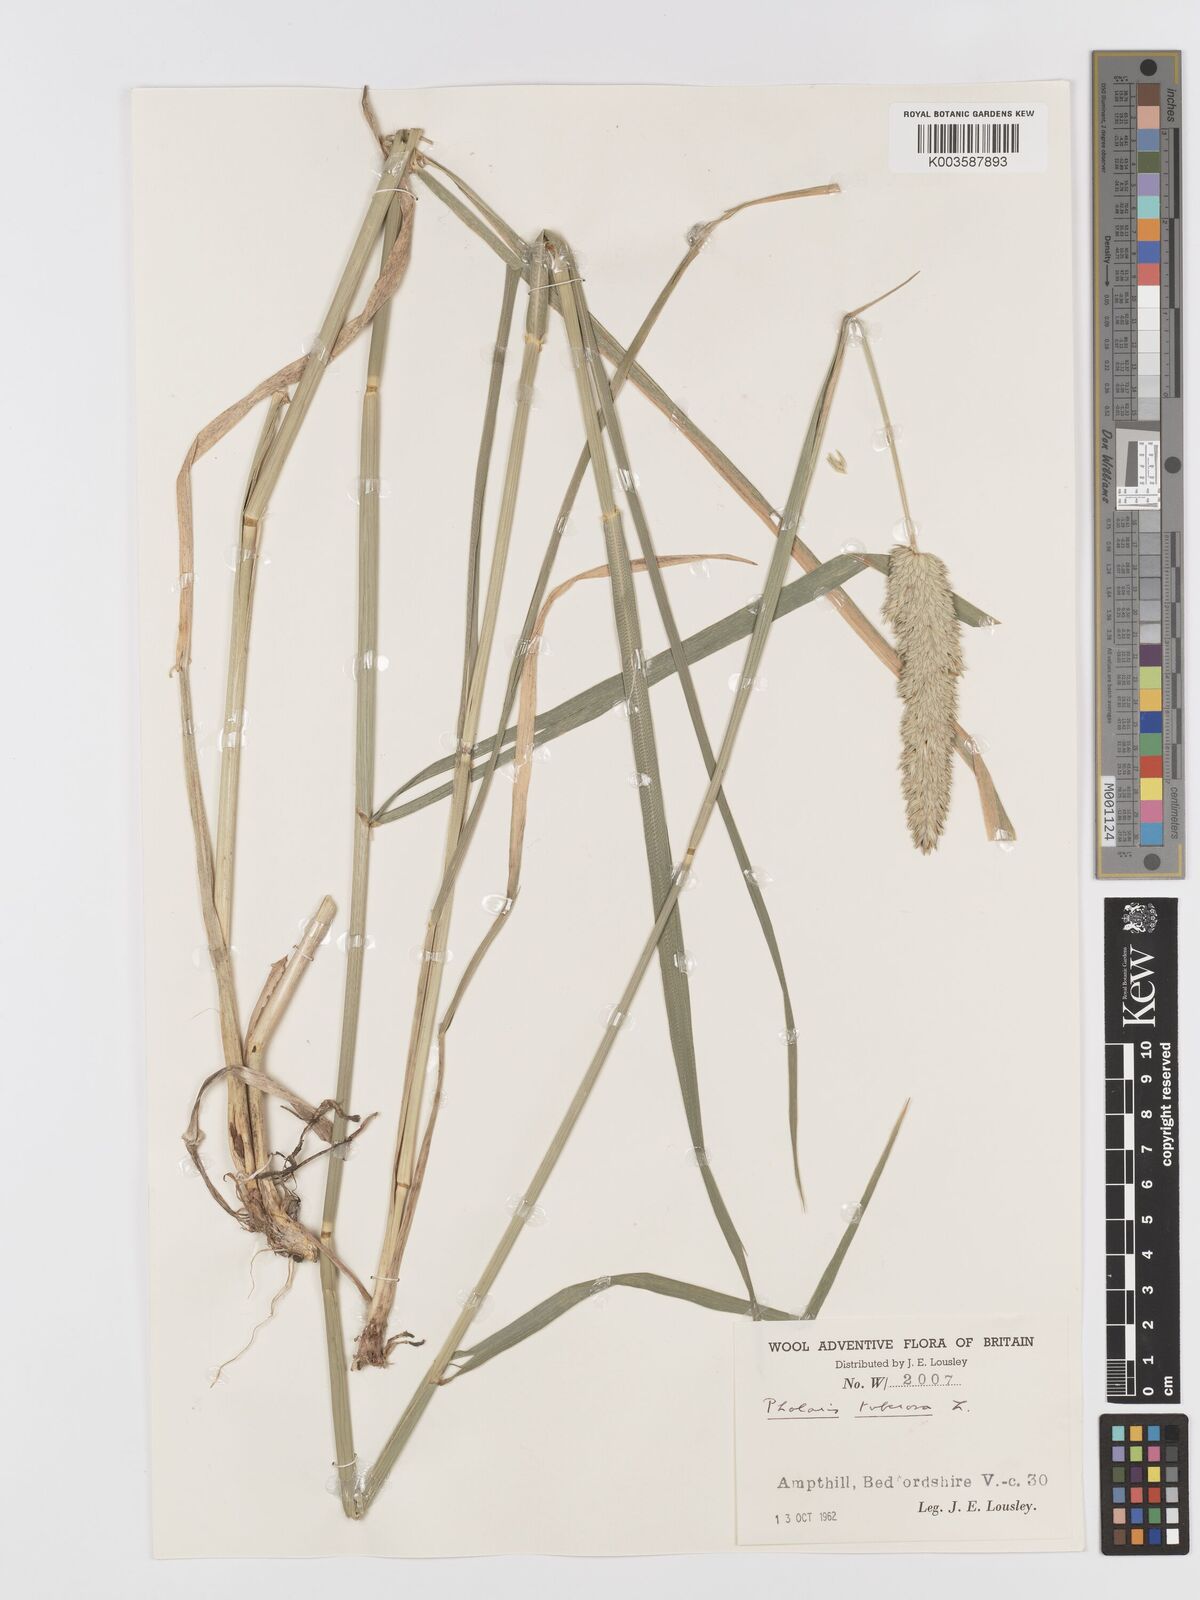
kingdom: Plantae
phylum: Tracheophyta
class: Liliopsida
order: Poales
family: Poaceae
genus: Phalaris
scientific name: Phalaris
